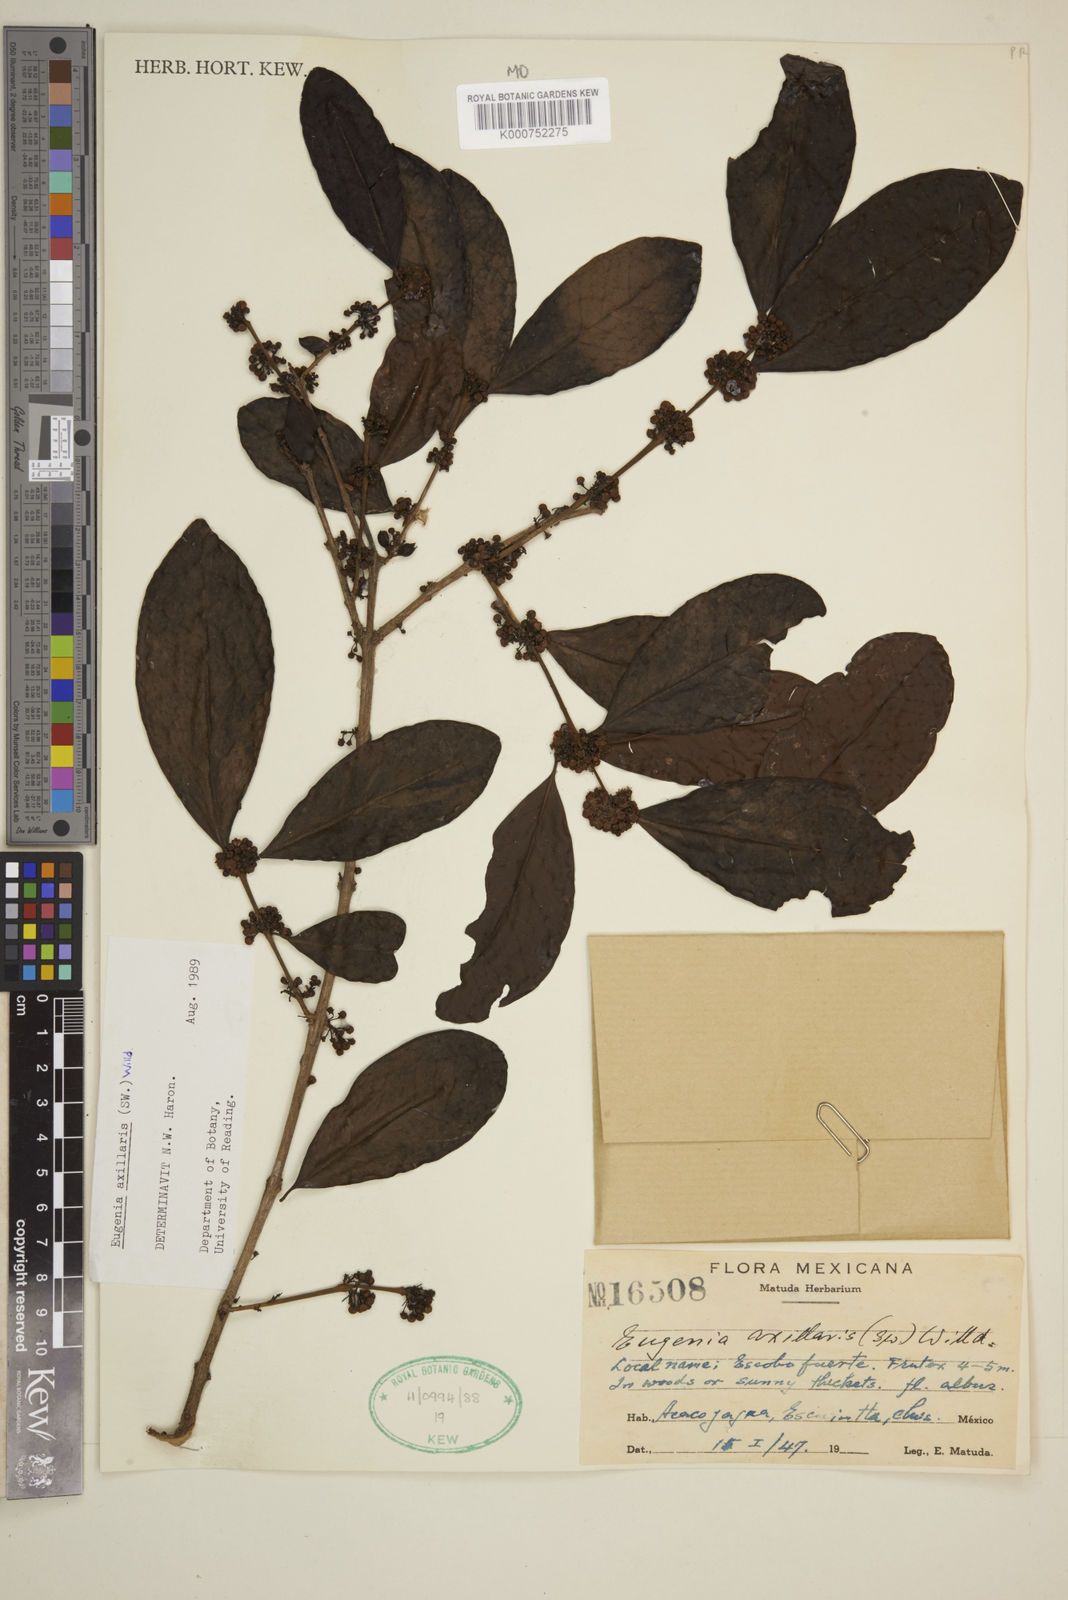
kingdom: Plantae
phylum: Tracheophyta
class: Magnoliopsida
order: Myrtales
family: Myrtaceae
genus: Eugenia
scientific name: Eugenia axillaris
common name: Choaky berry
